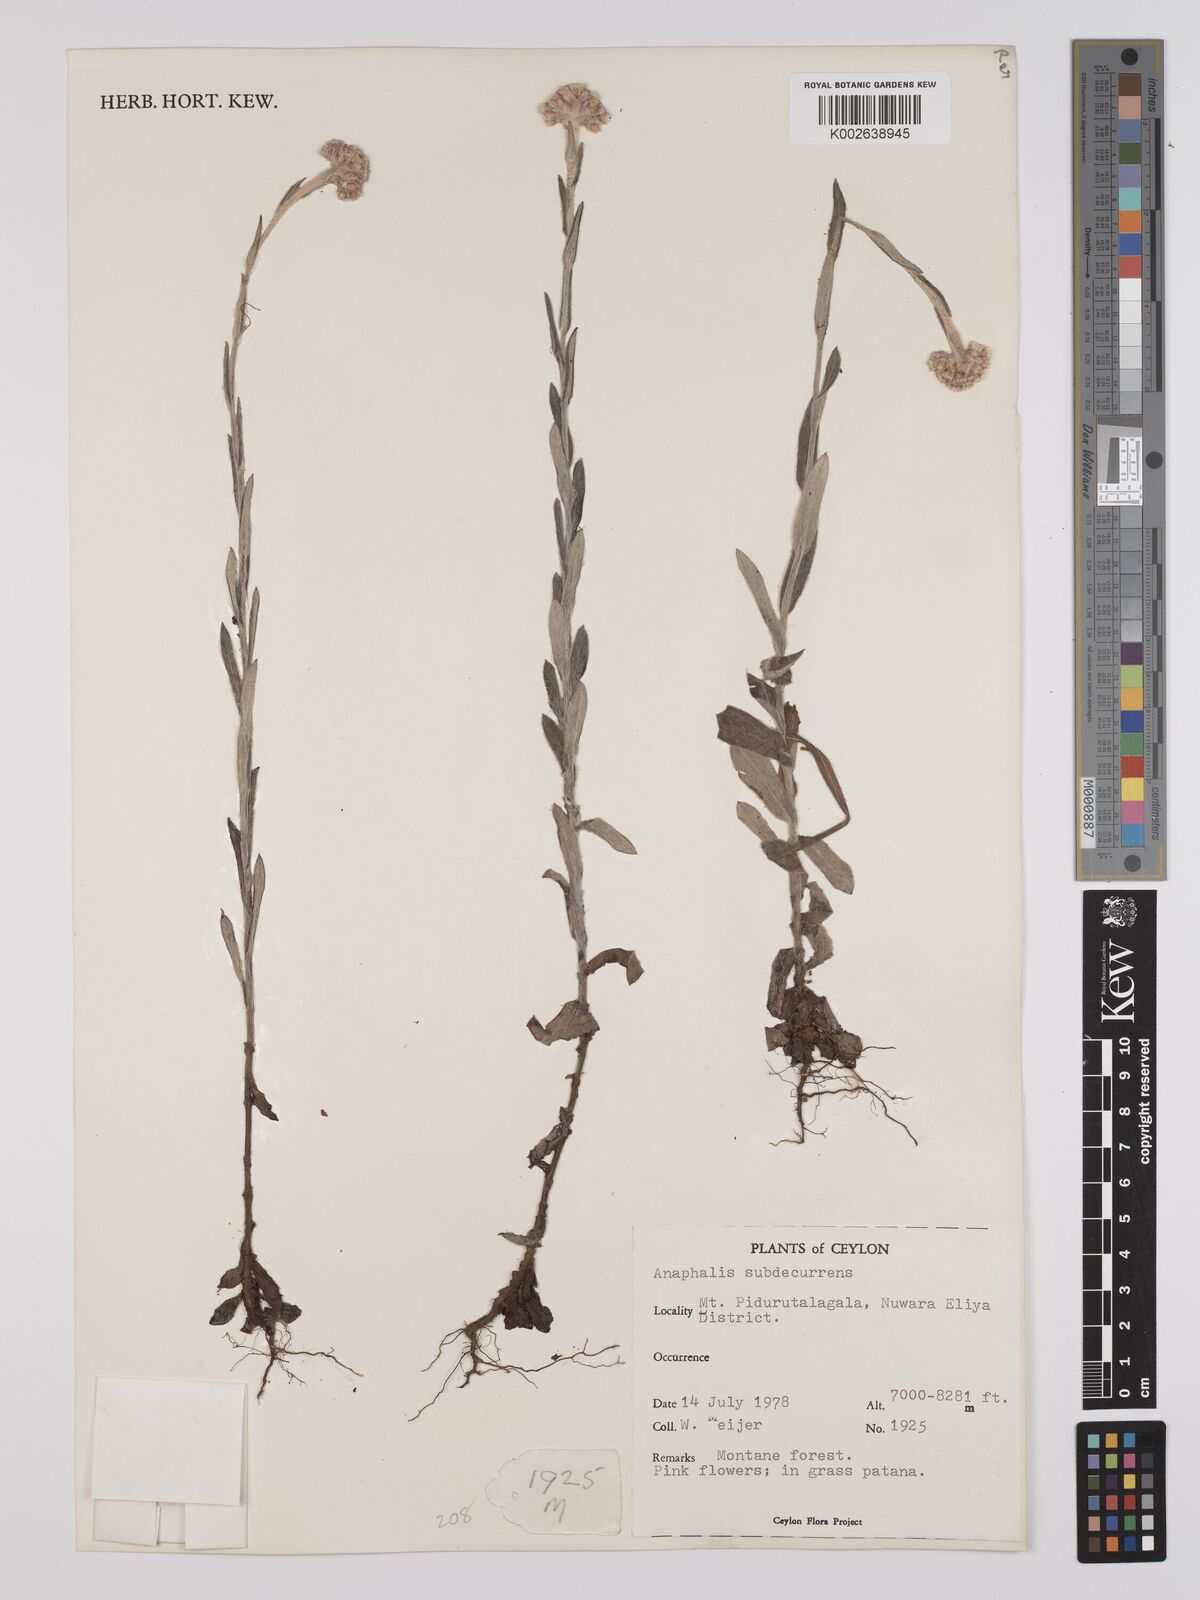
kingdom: Plantae
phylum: Tracheophyta
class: Magnoliopsida
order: Asterales
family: Asteraceae
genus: Anaphalis
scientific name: Anaphalis
